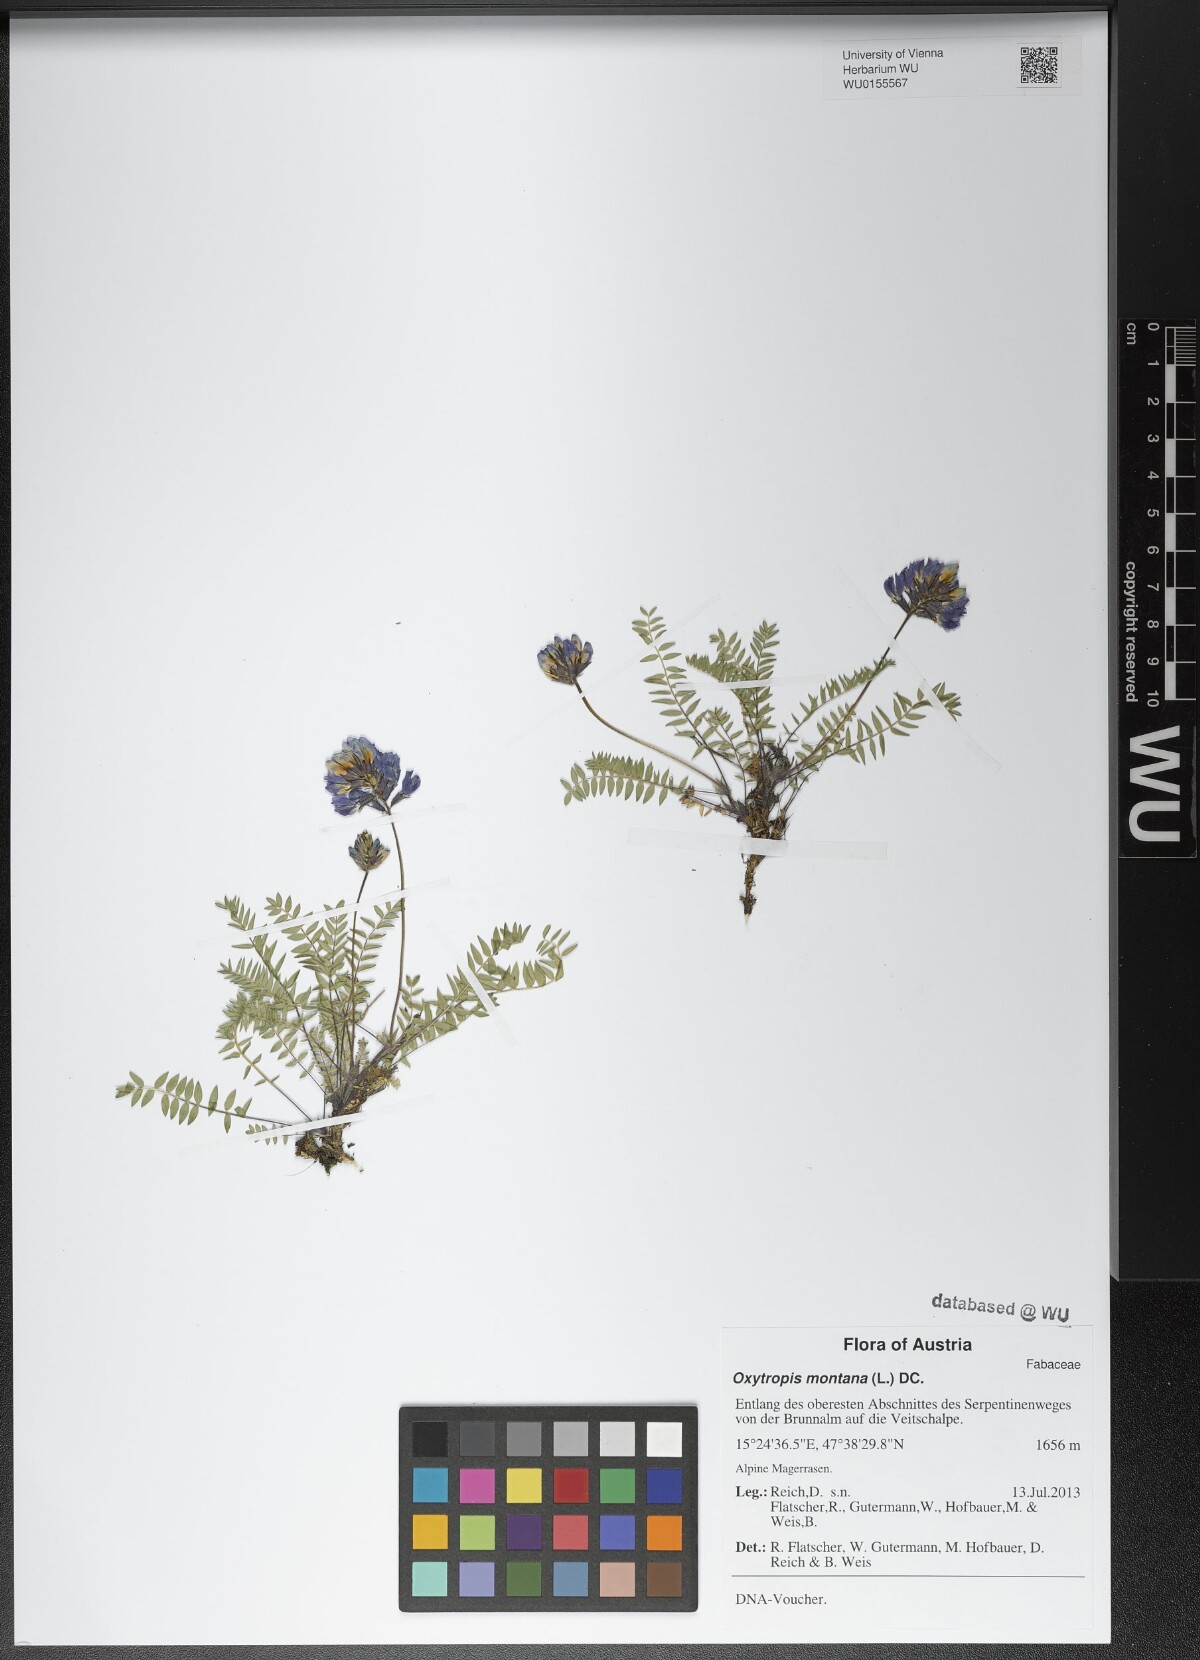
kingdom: Plantae
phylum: Tracheophyta
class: Magnoliopsida
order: Fabales
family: Fabaceae
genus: Oxytropis
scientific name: Oxytropis montana
